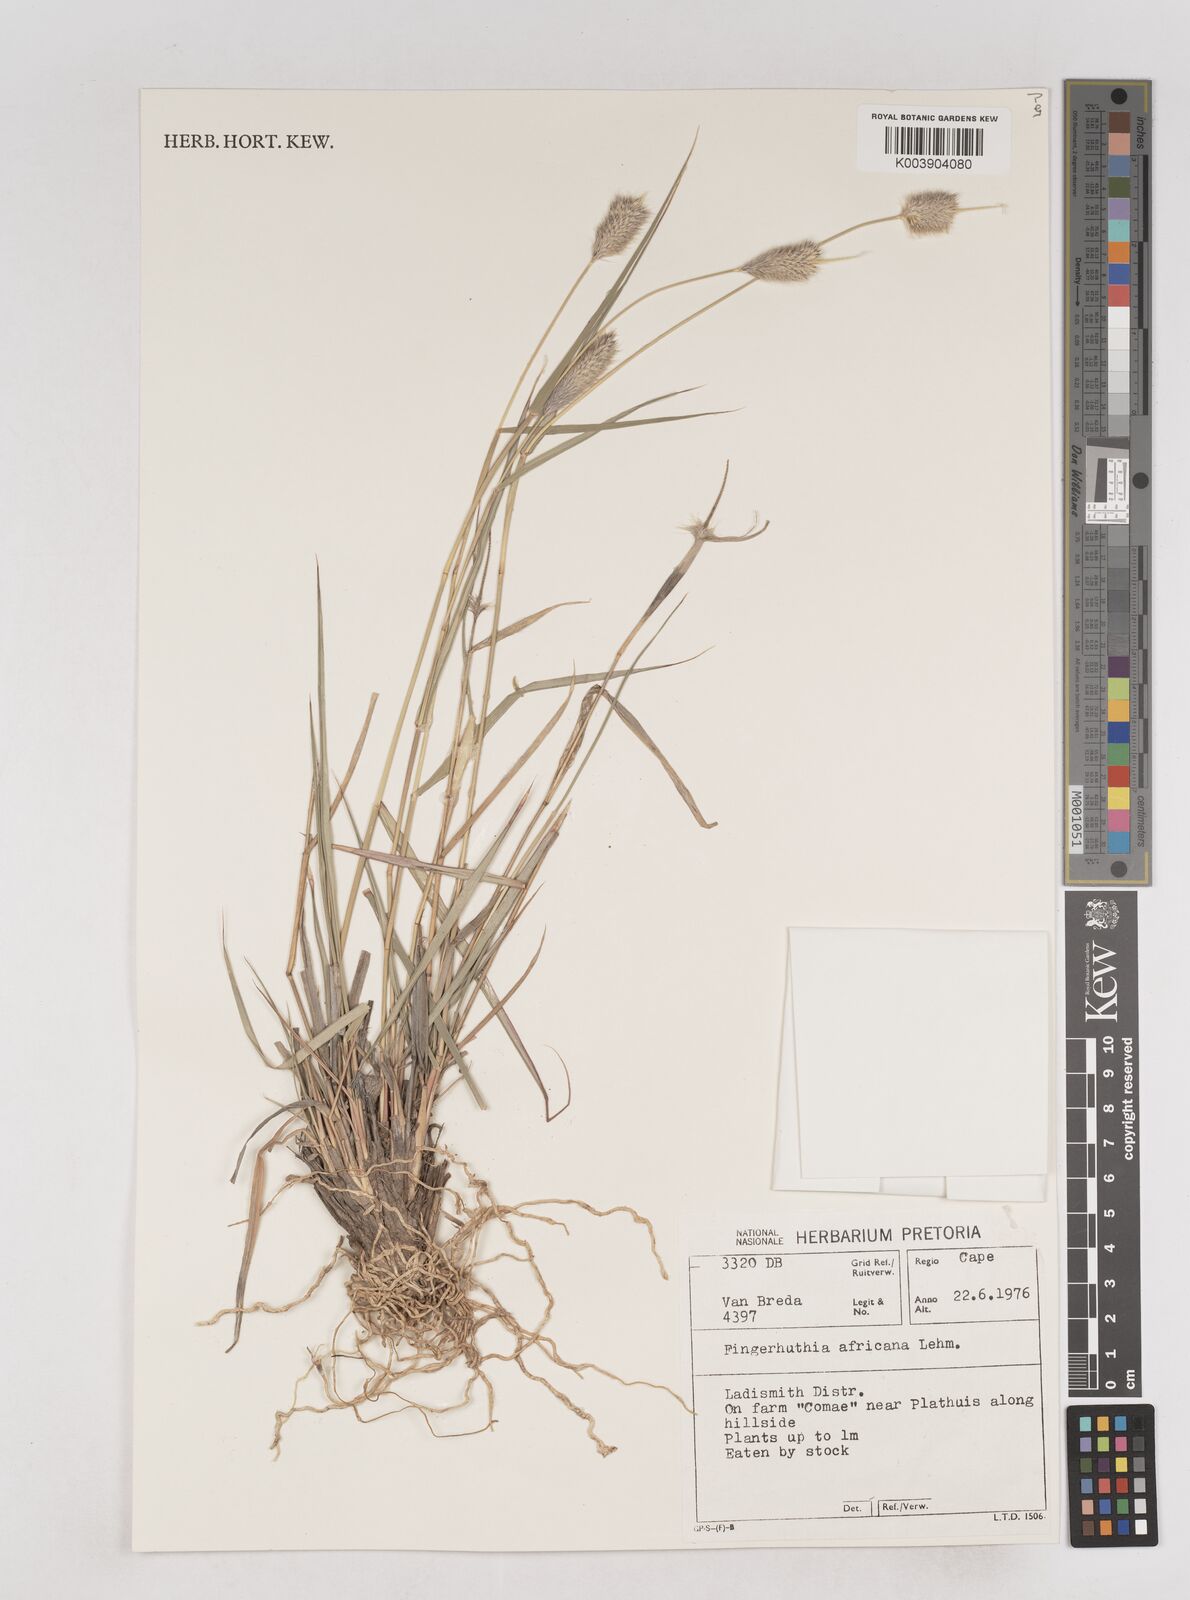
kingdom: Plantae
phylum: Tracheophyta
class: Liliopsida
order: Poales
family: Poaceae
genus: Fingerhuthia
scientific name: Fingerhuthia africana
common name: Zulu fescue
